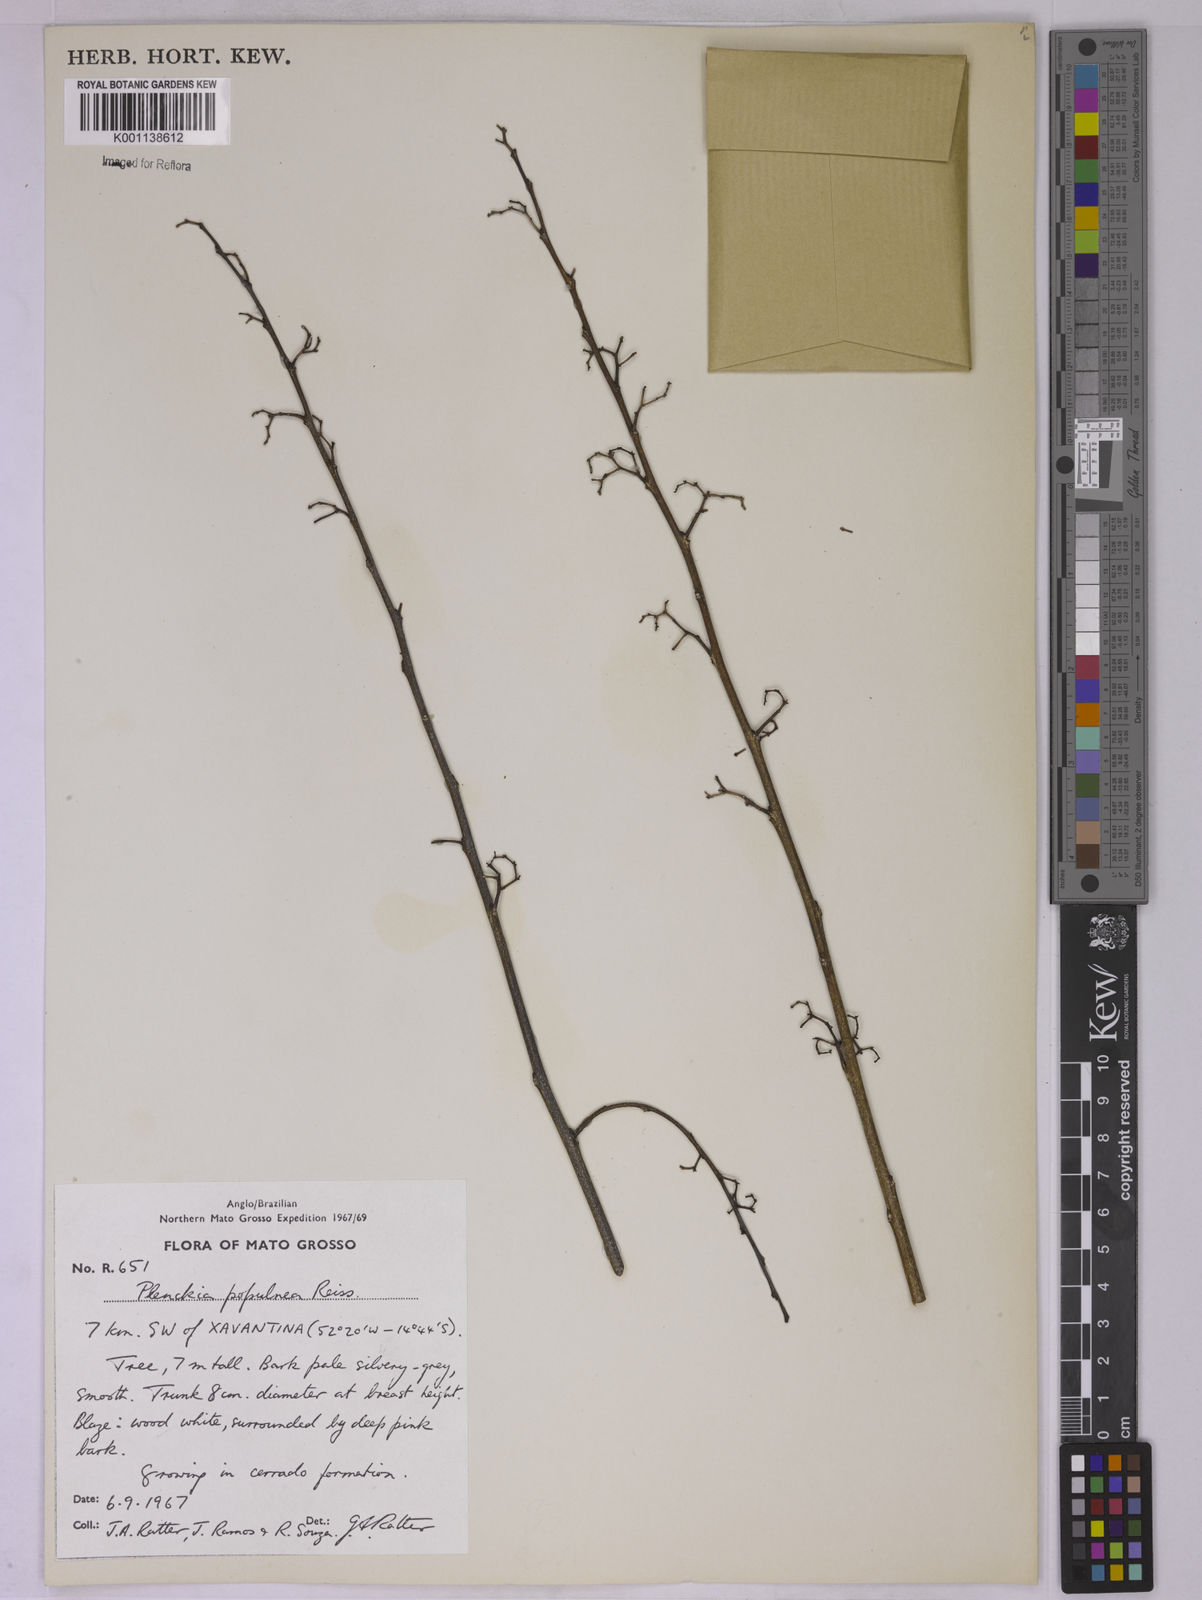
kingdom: Plantae
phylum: Tracheophyta
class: Magnoliopsida
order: Celastrales
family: Celastraceae
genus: Plenckia
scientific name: Plenckia populnea
